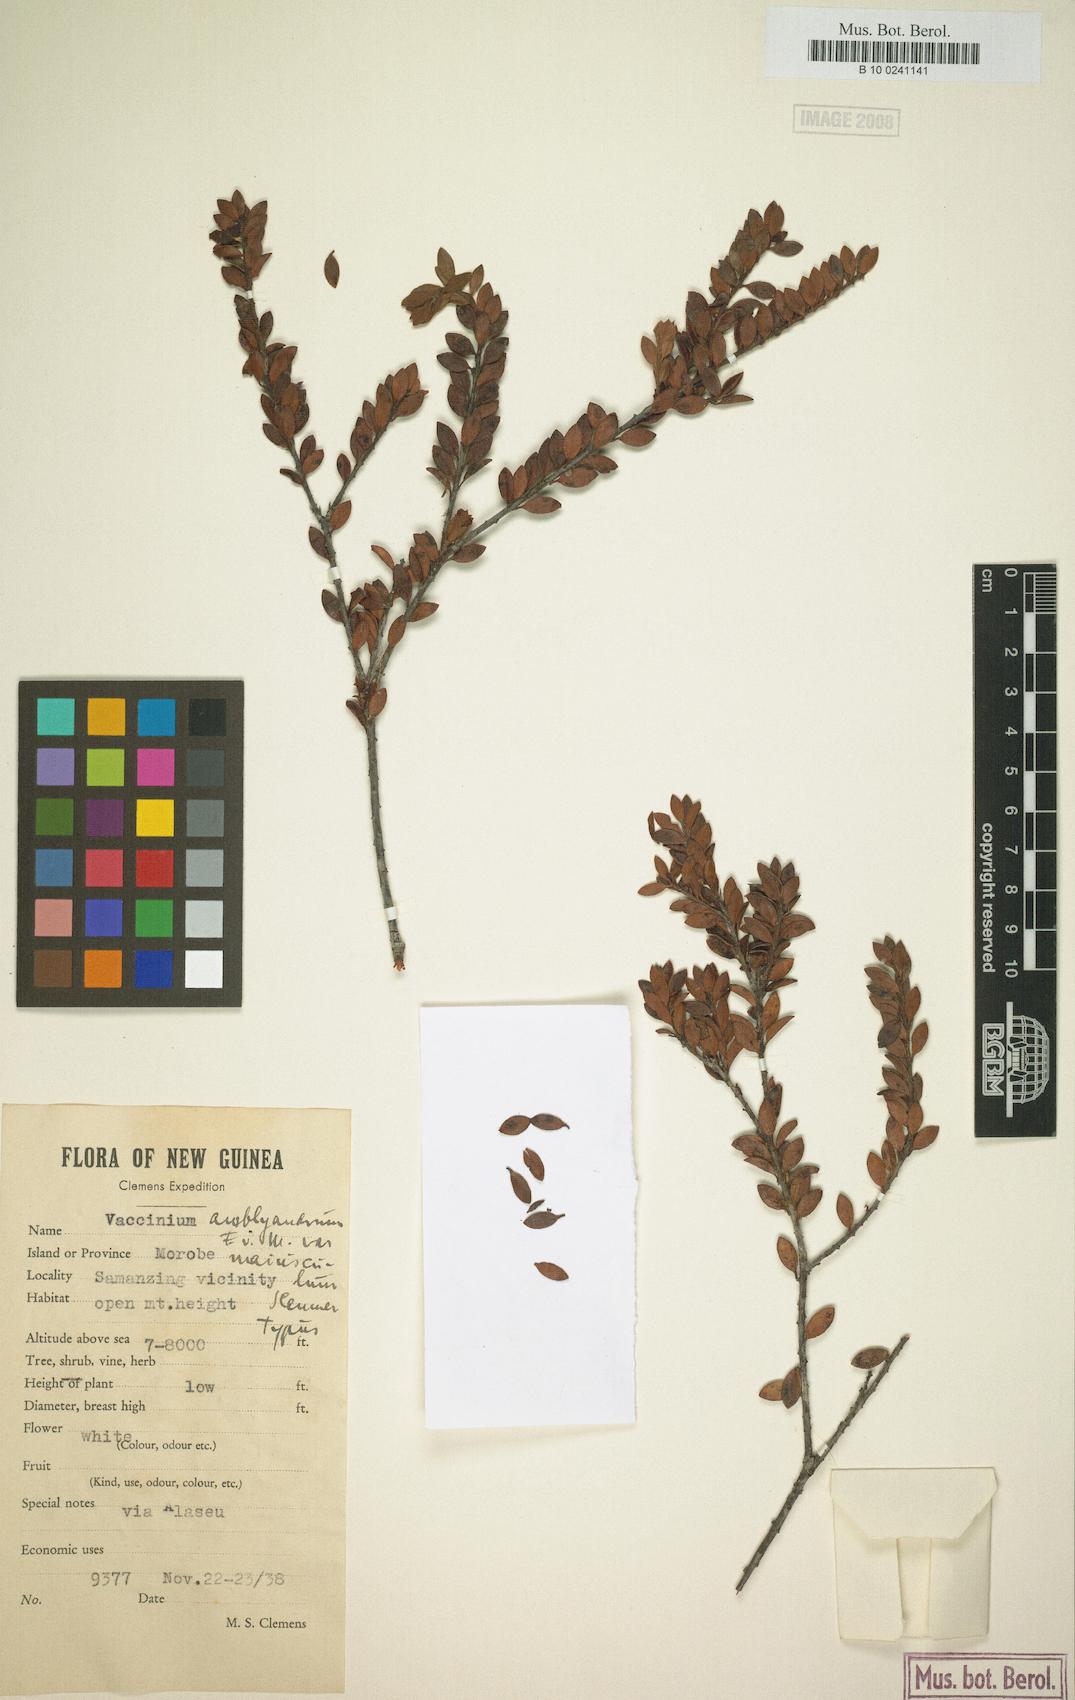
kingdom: Plantae
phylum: Tracheophyta
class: Magnoliopsida
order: Ericales
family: Ericaceae
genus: Vaccinium
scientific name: Vaccinium amblyandrum
